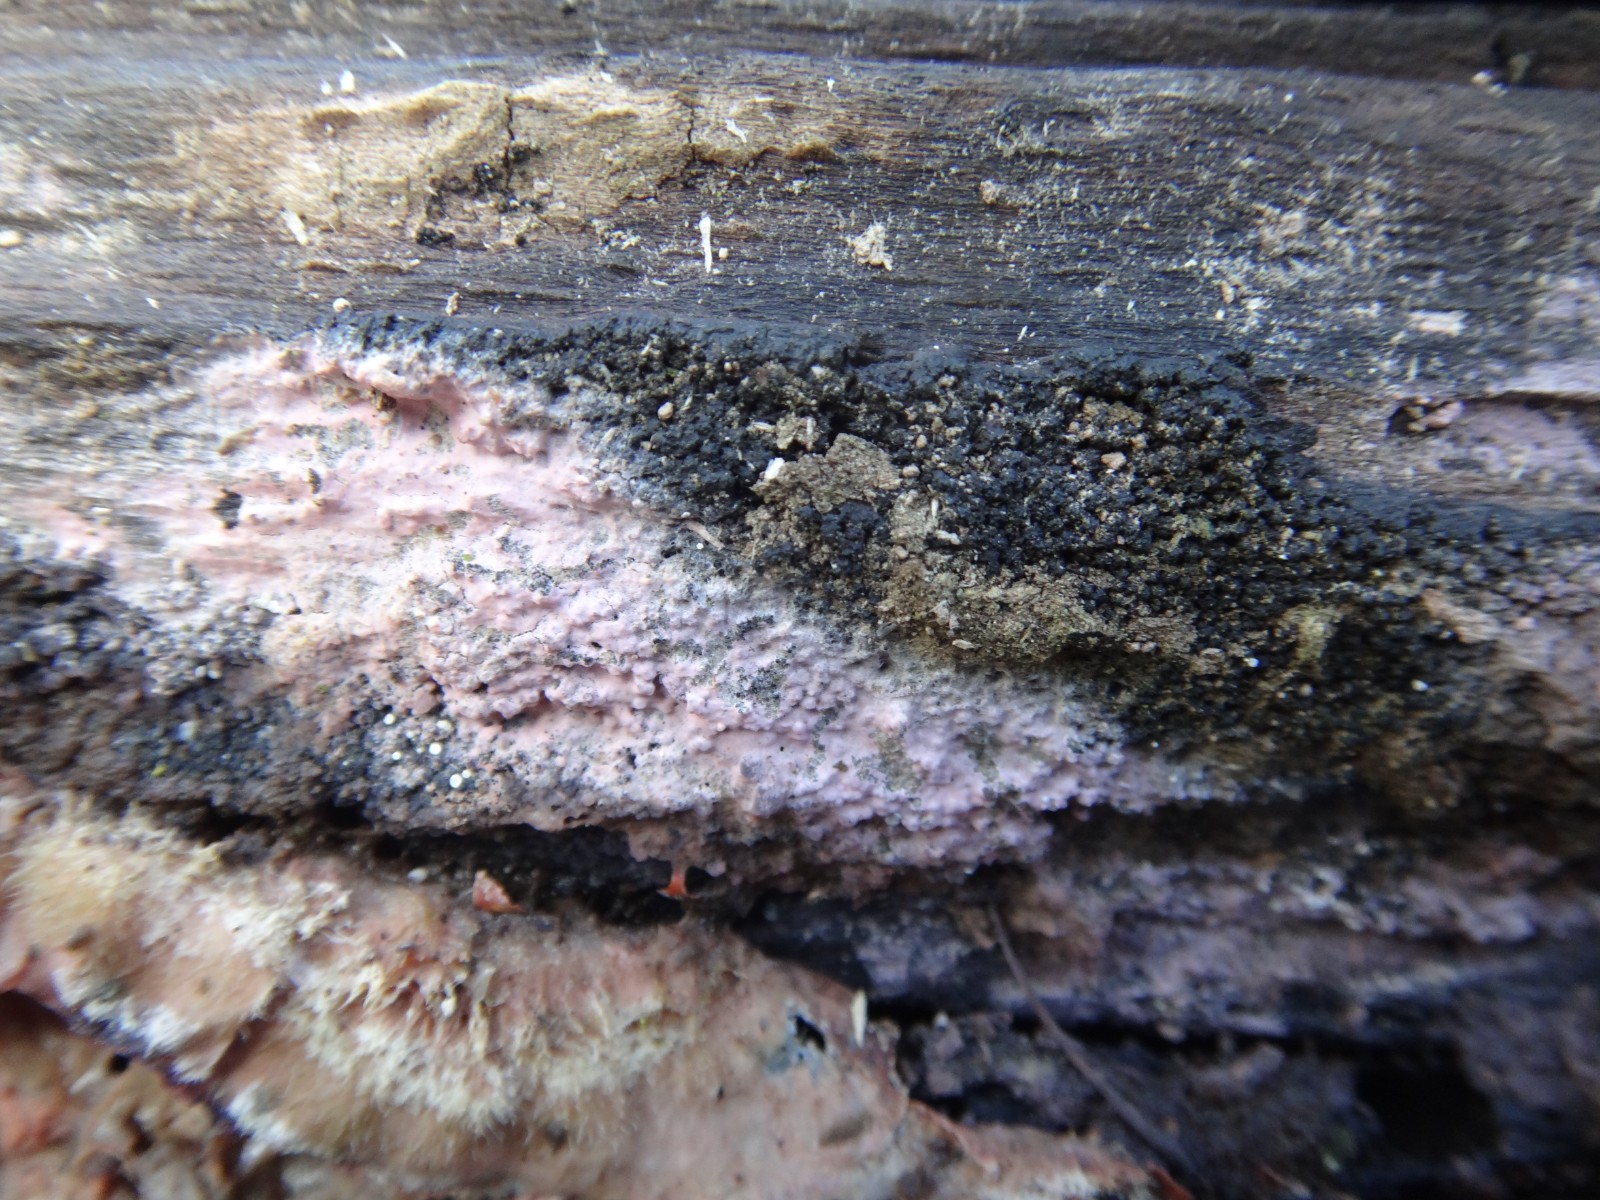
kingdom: Fungi
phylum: Basidiomycota
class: Agaricomycetes
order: Cantharellales
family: Tulasnellaceae
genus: Tulasnella
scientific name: Tulasnella violea
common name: violet ballonhinde
